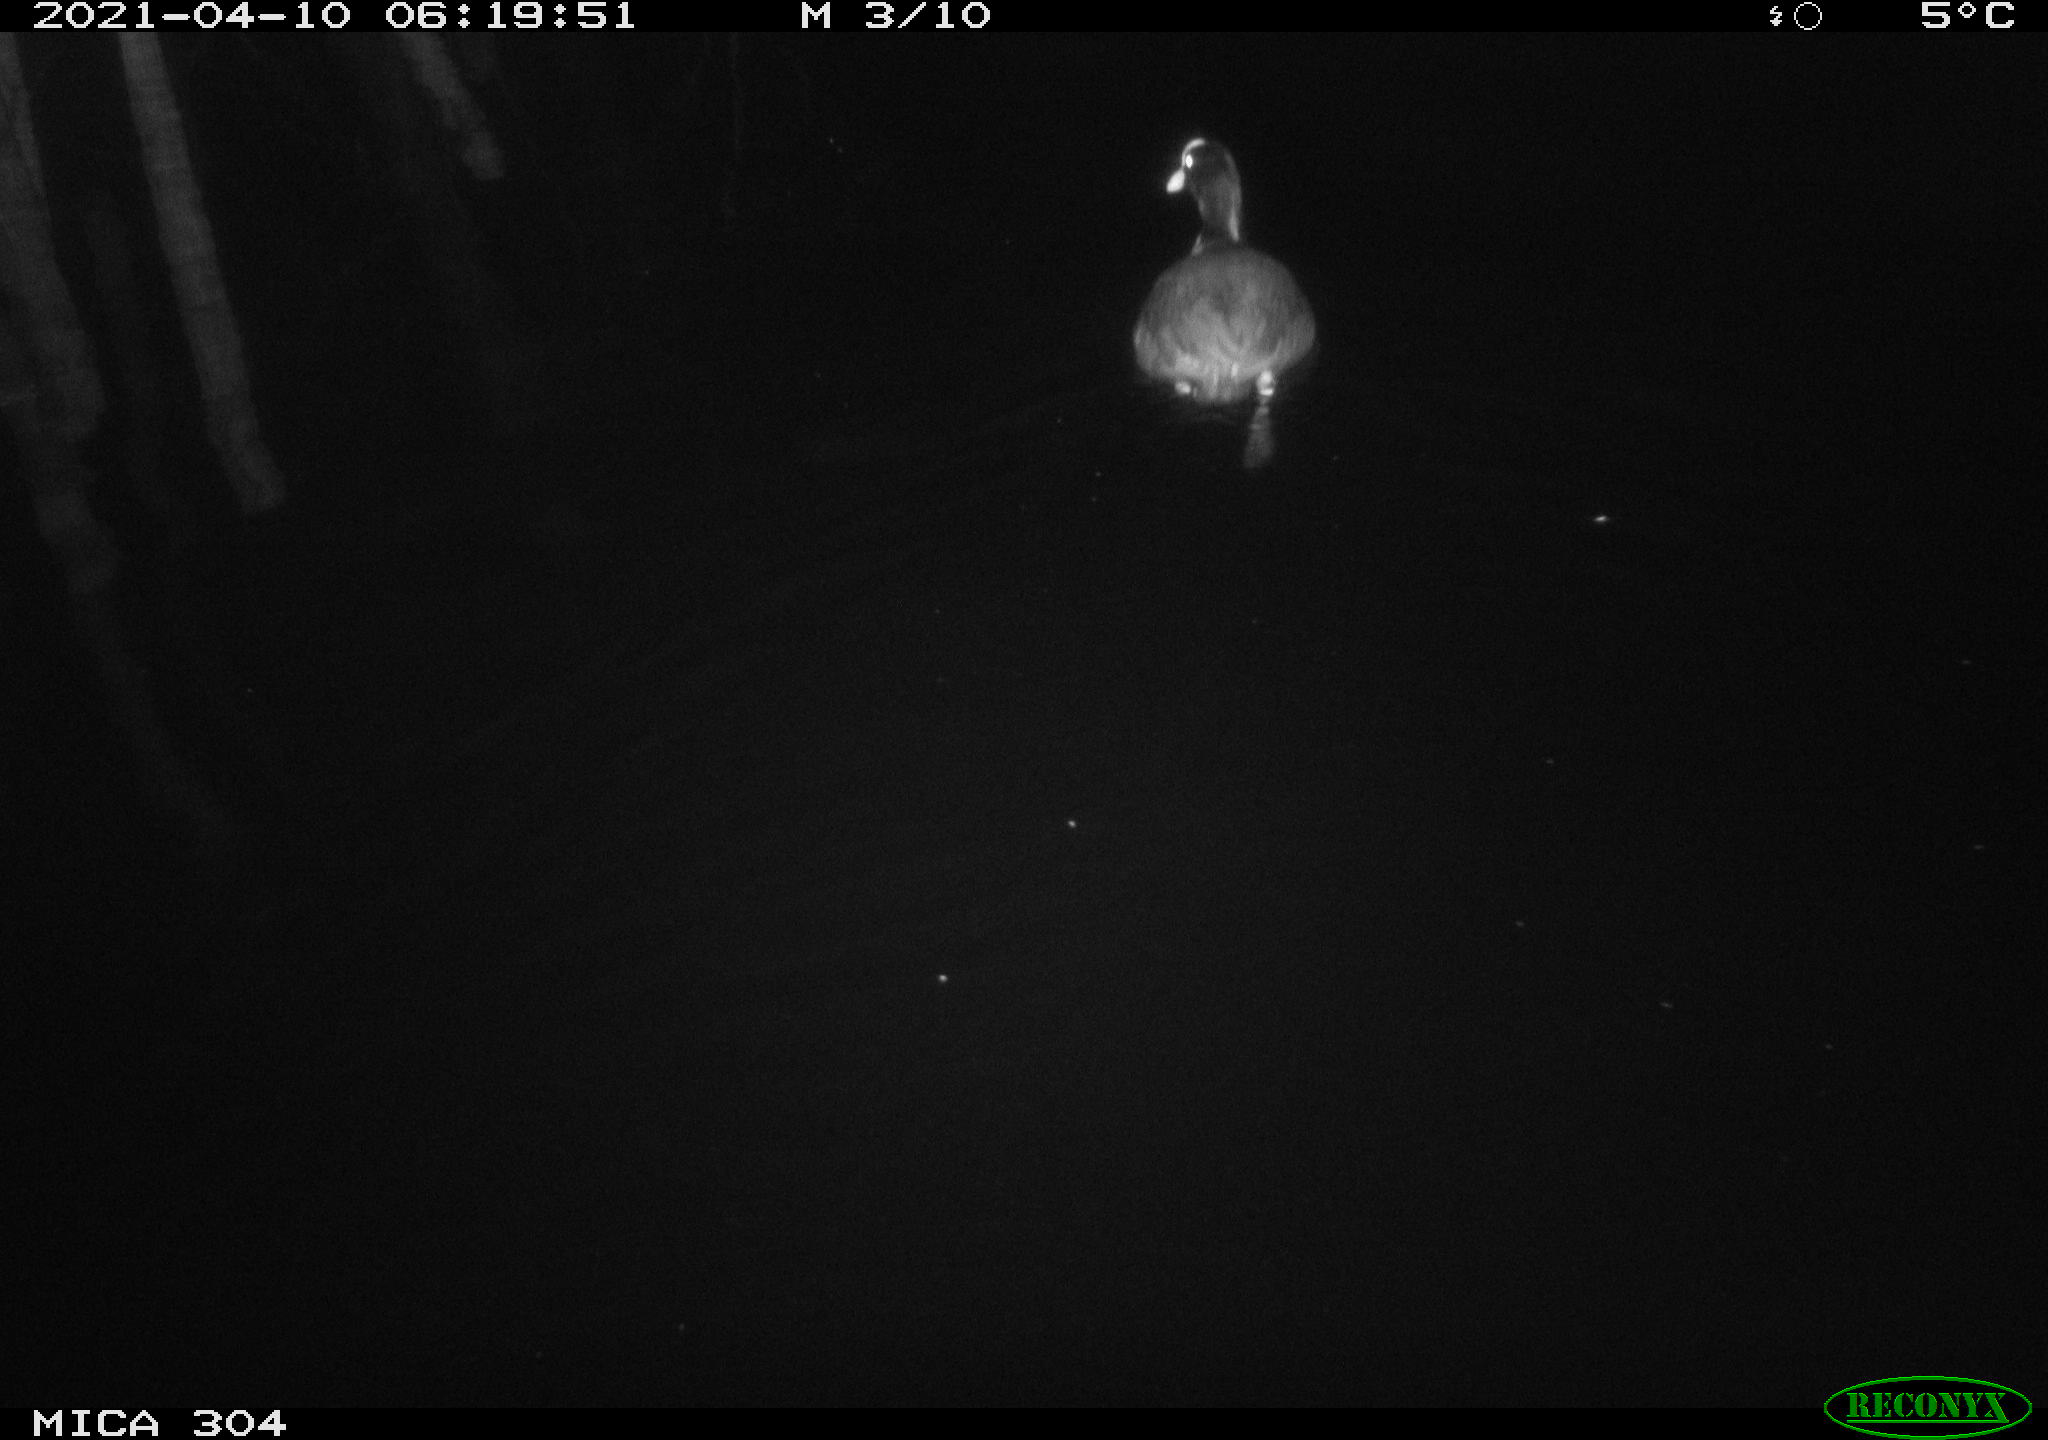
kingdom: Animalia
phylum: Chordata
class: Aves
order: Gruiformes
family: Rallidae
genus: Fulica
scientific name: Fulica atra
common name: Eurasian coot
